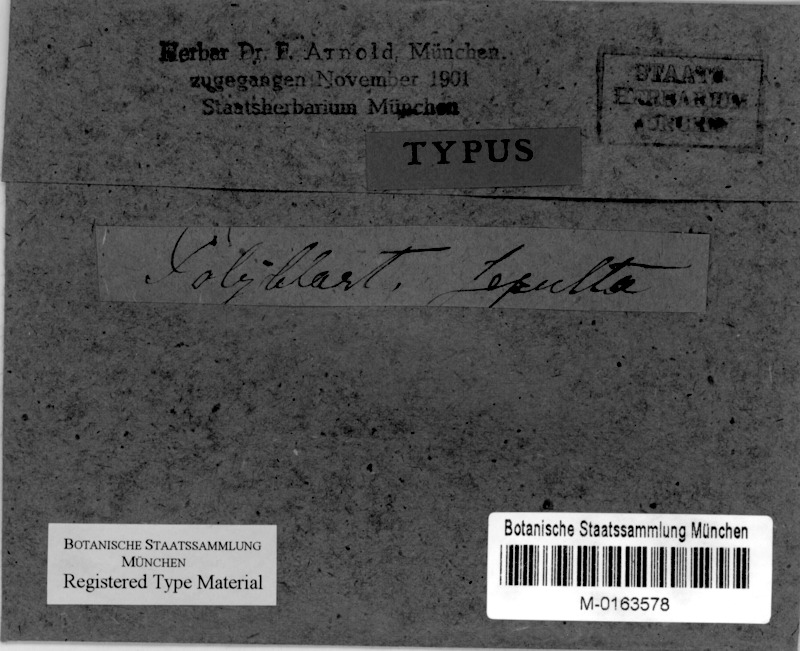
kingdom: Fungi
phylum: Ascomycota
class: Eurotiomycetes
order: Verrucariales
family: Verrucariaceae
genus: Polyblastia
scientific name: Polyblastia sepulta
